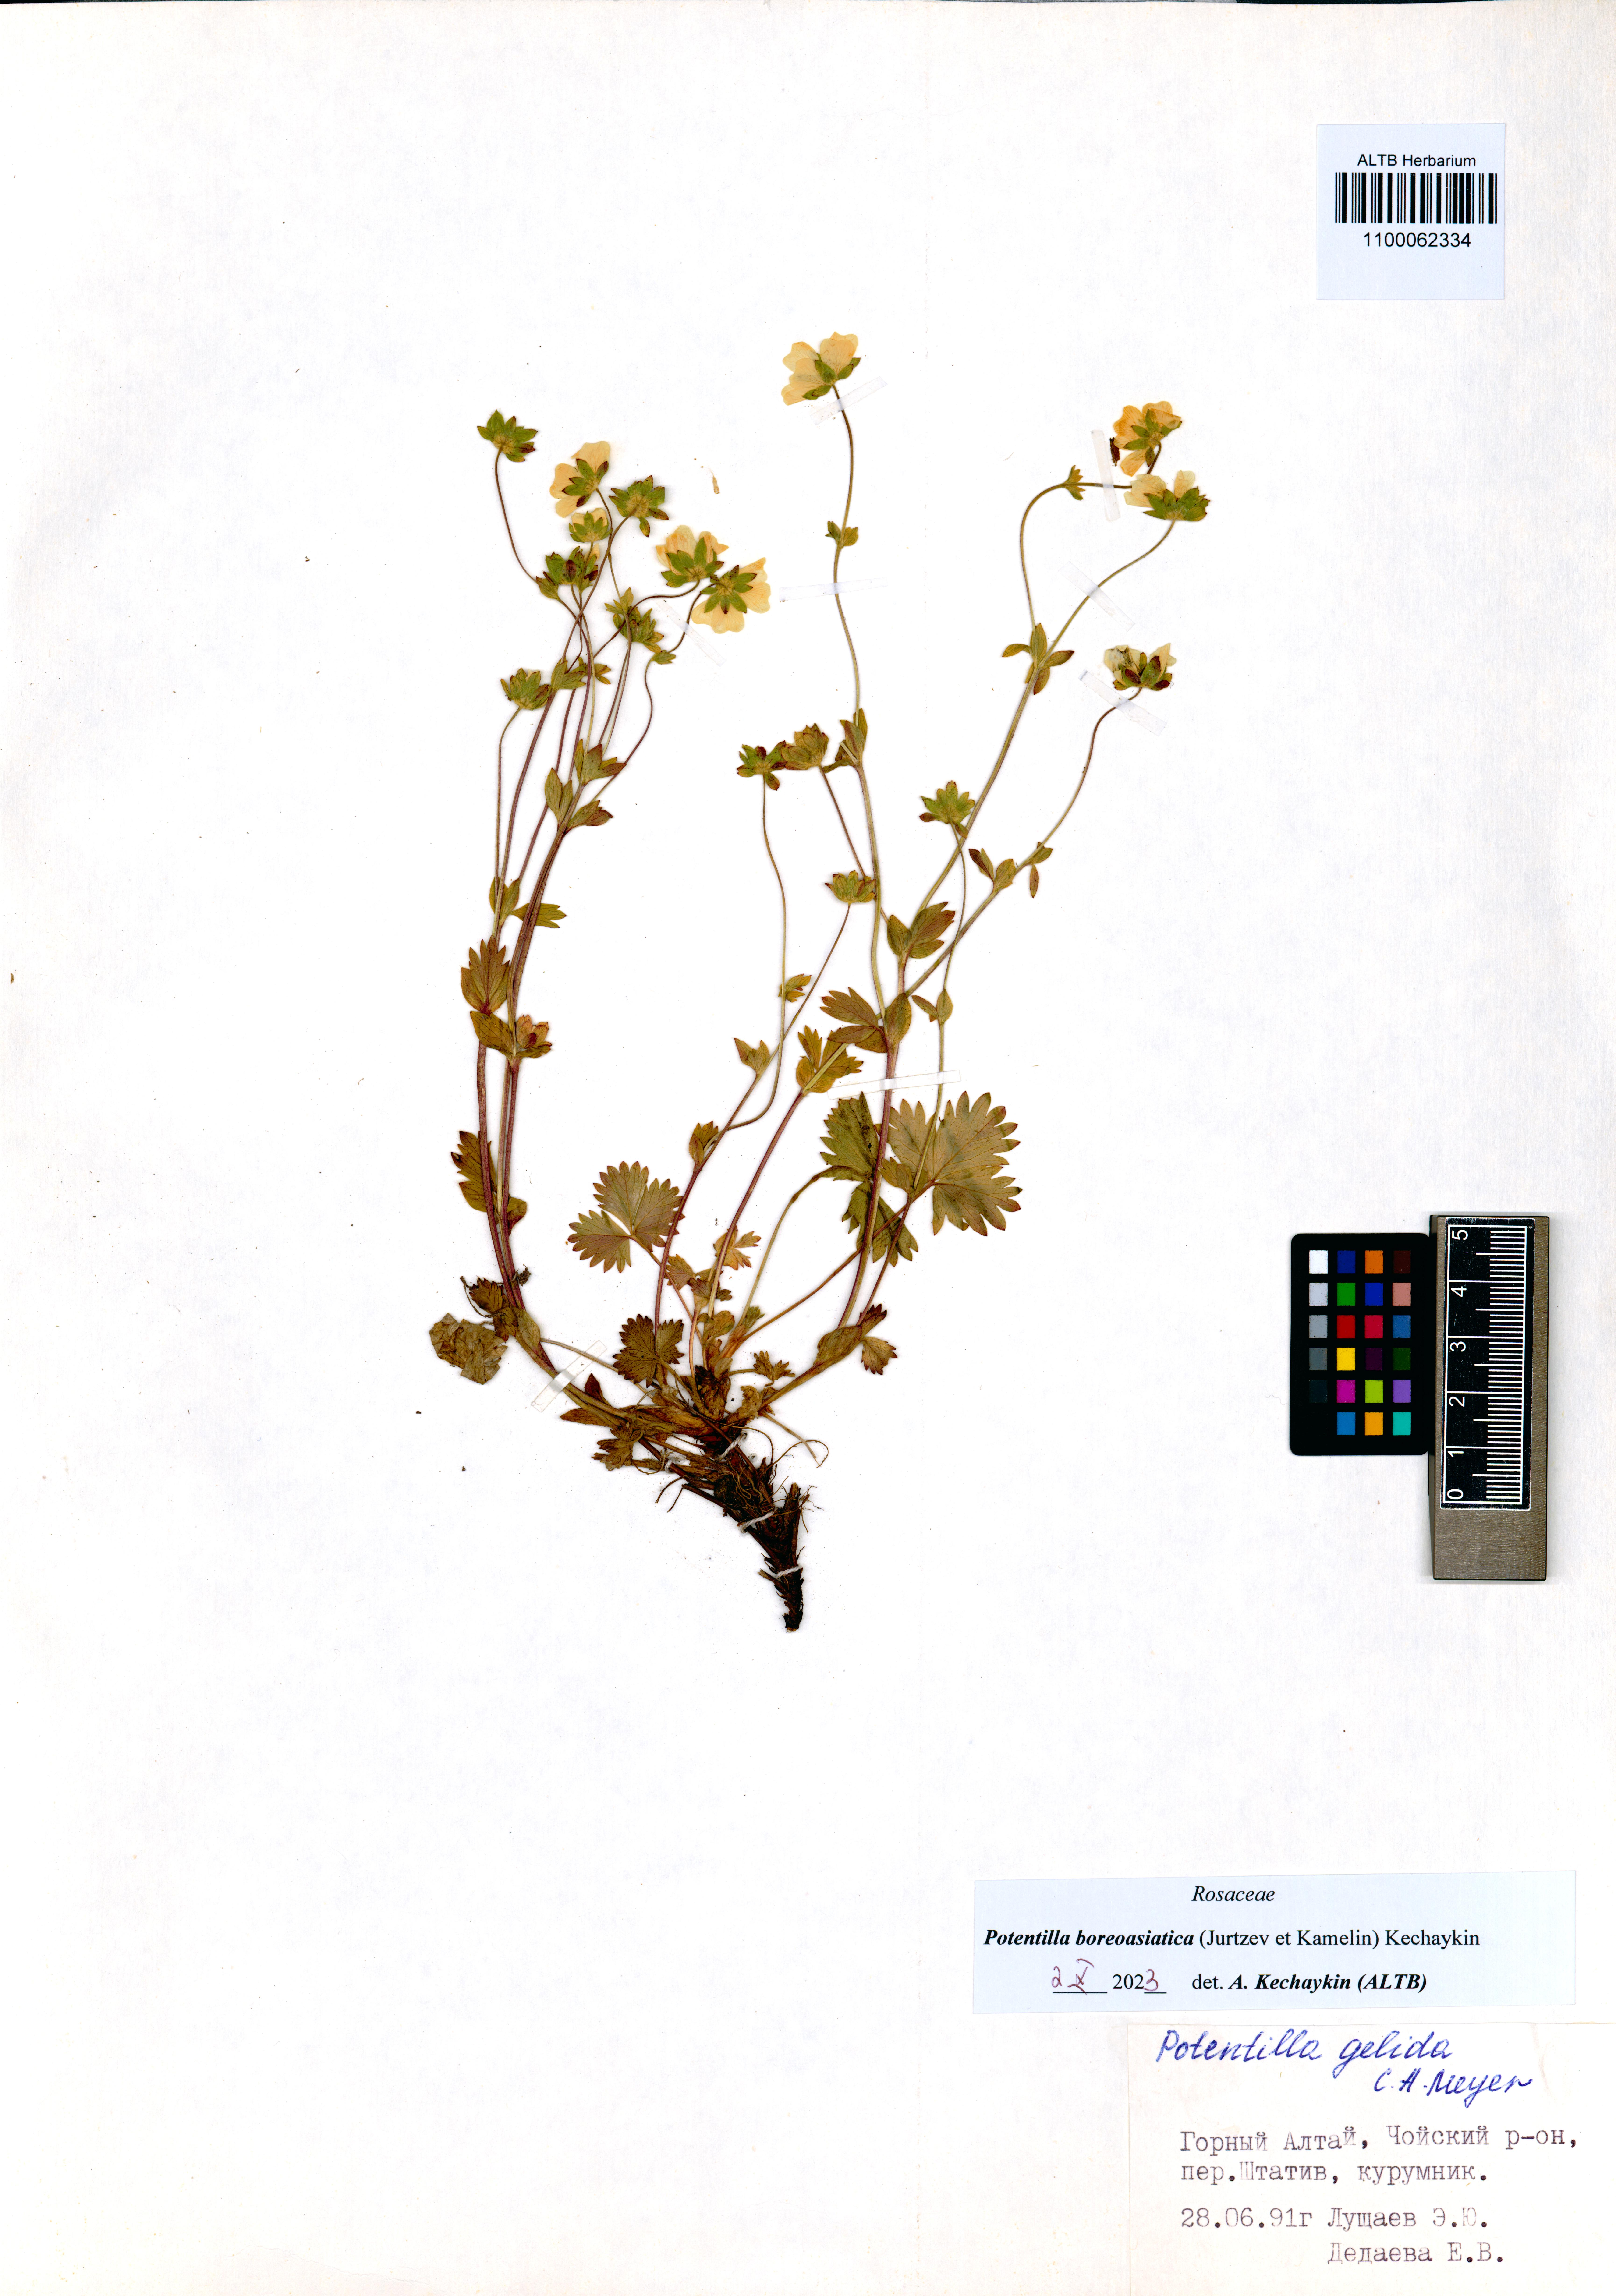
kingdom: Plantae
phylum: Tracheophyta
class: Magnoliopsida
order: Rosales
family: Rosaceae
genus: Potentilla
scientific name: Potentilla
